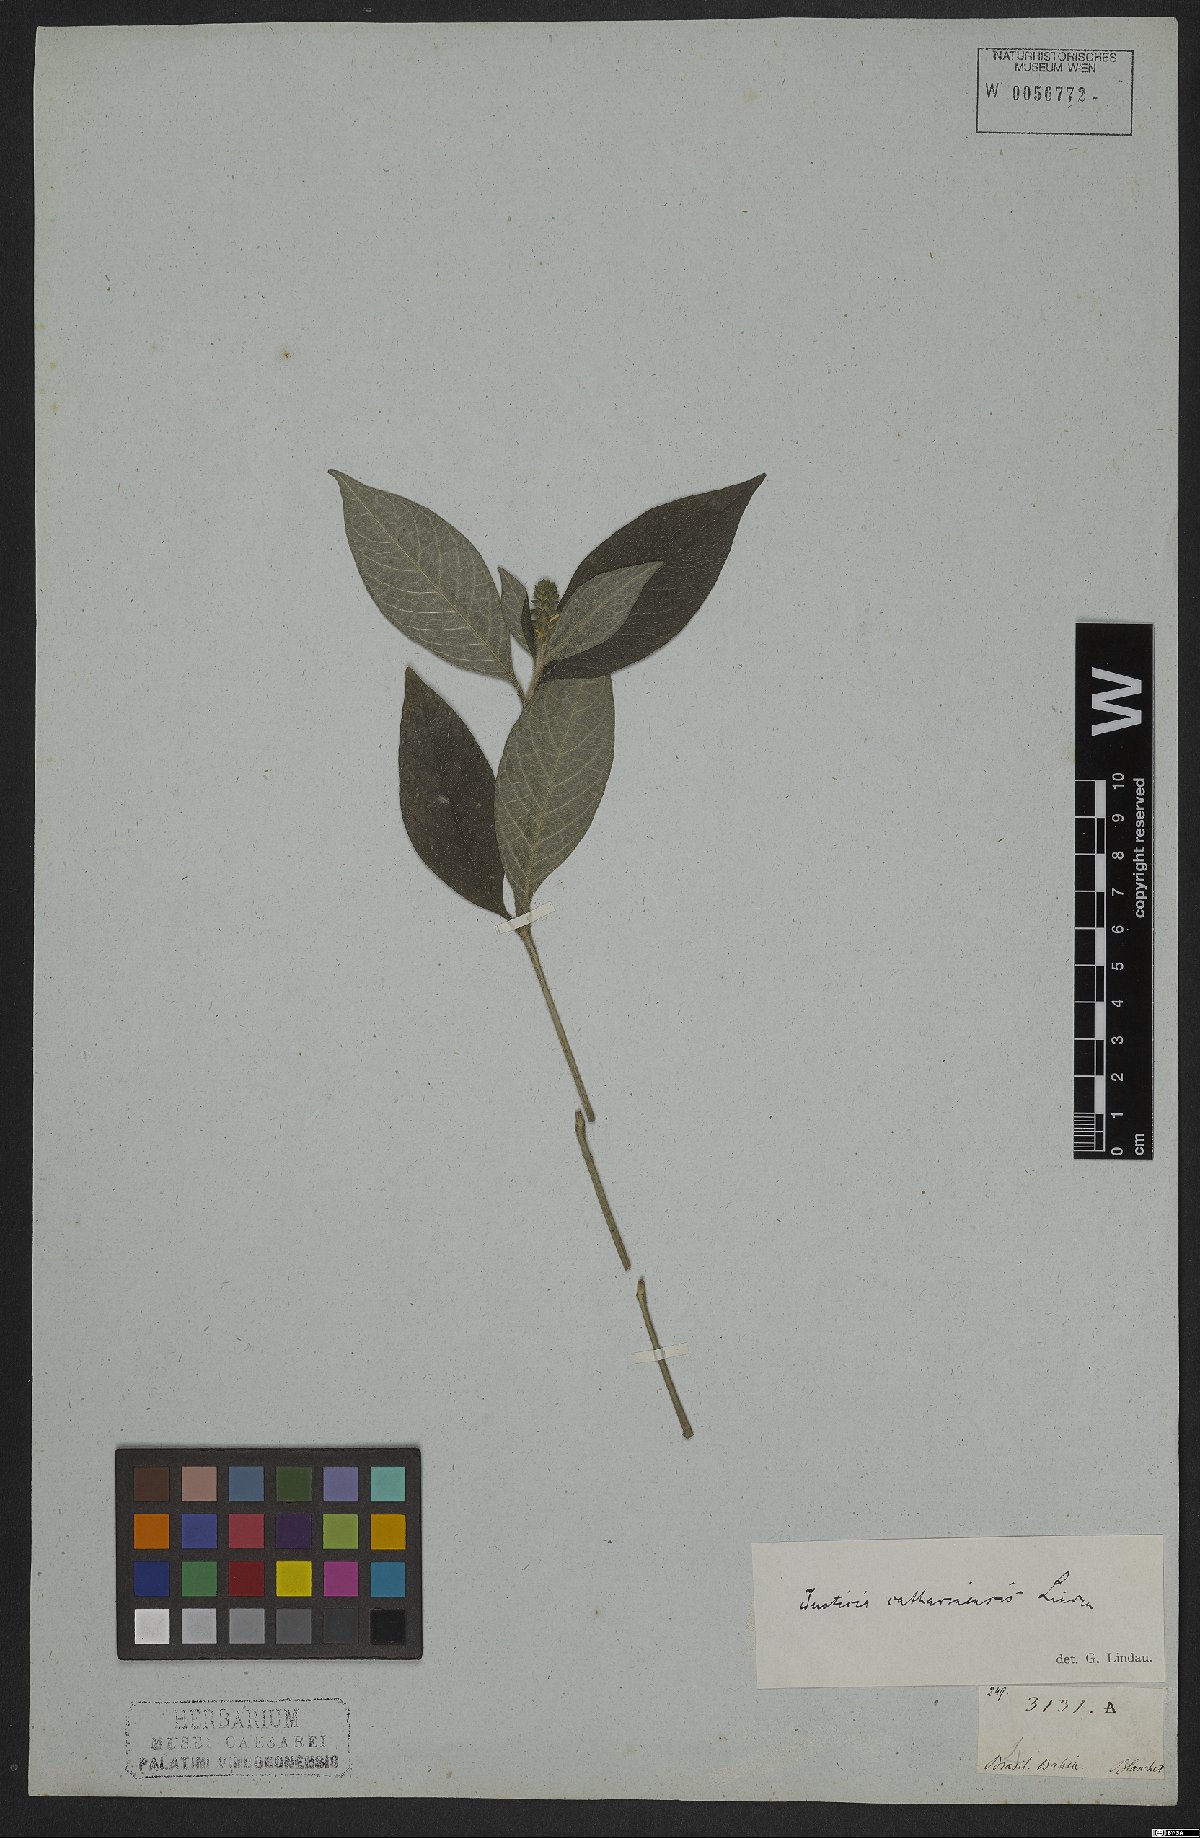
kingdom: Plantae
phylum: Tracheophyta
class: Magnoliopsida
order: Lamiales
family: Acanthaceae
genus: Justicia
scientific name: Justicia catharinensis
